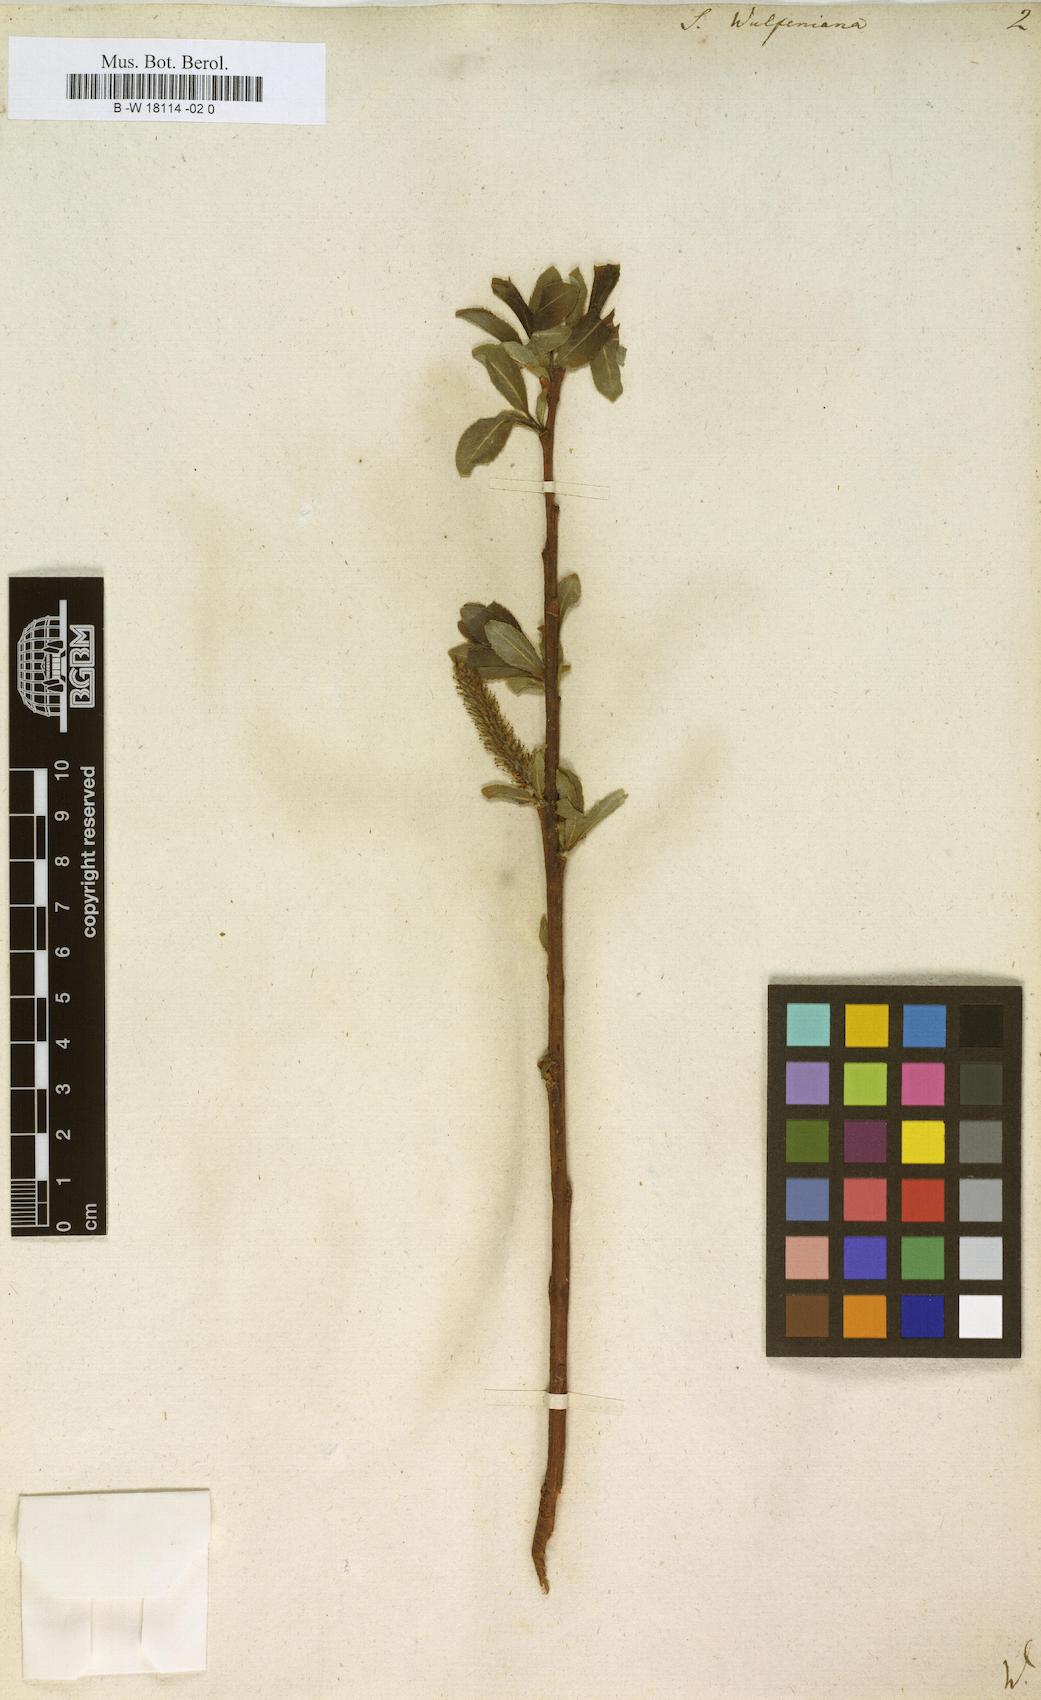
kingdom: Plantae
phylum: Tracheophyta
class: Magnoliopsida
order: Malpighiales
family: Salicaceae
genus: Salix
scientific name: Salix
